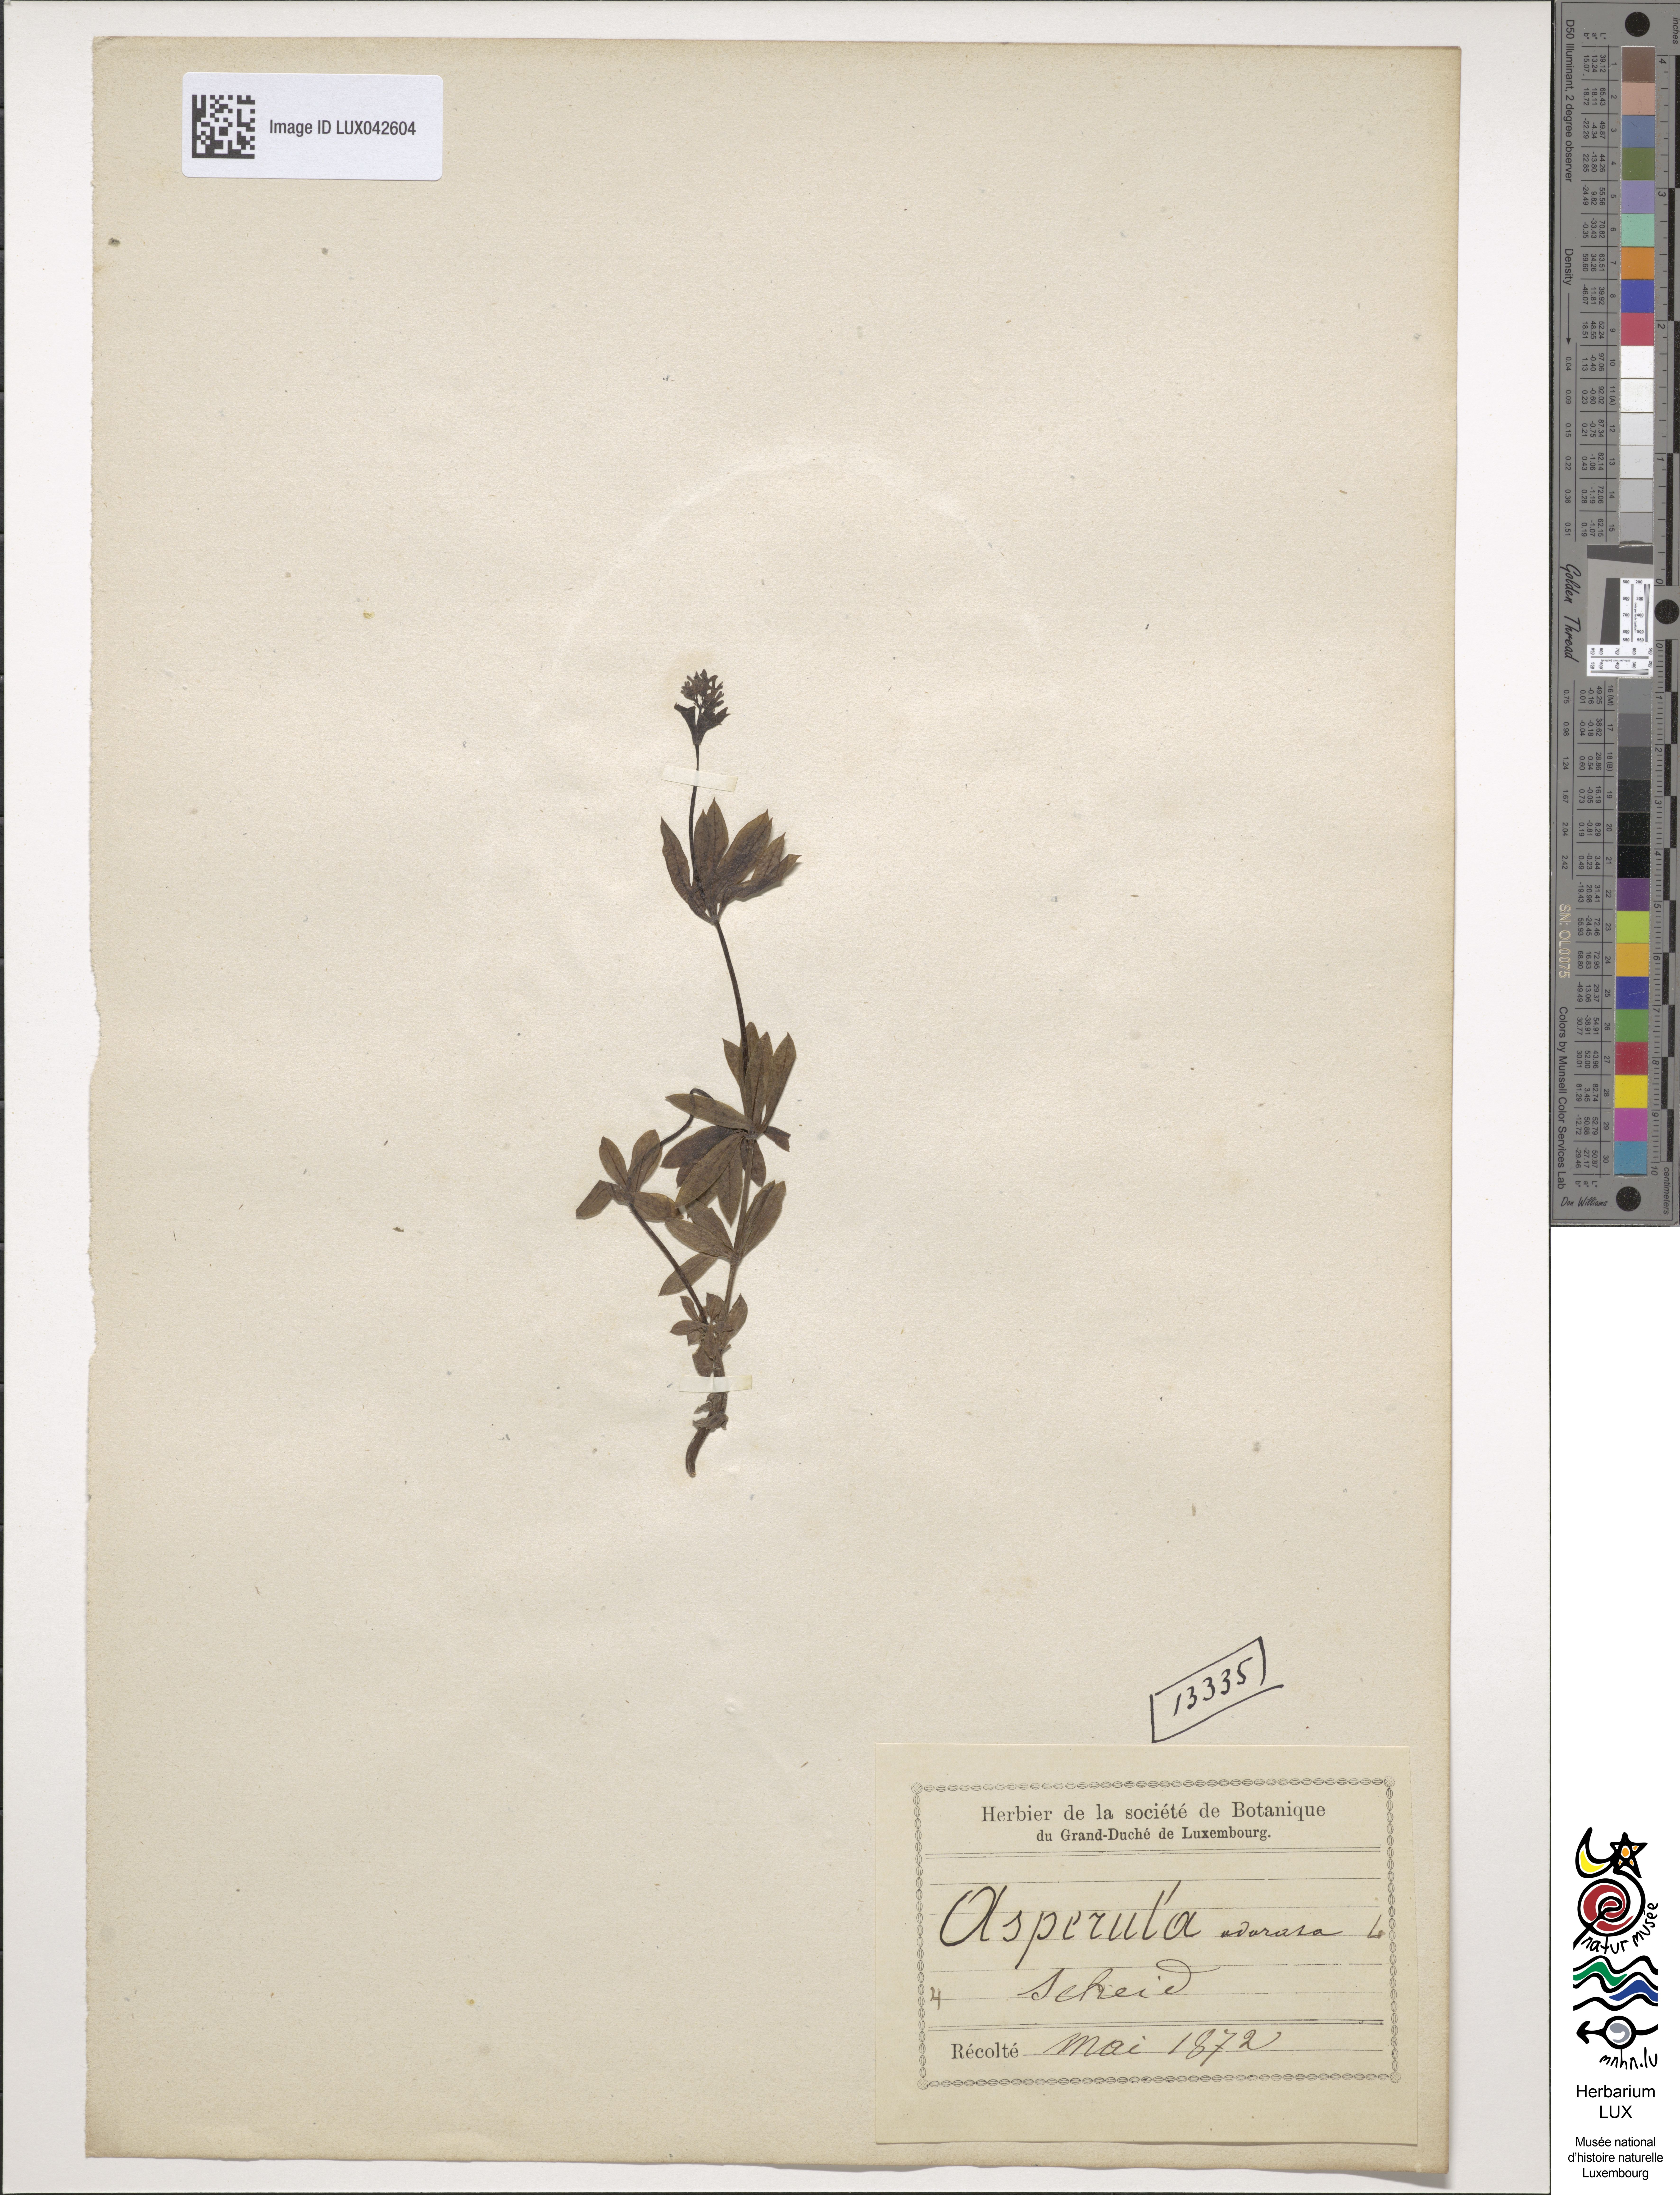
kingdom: Plantae
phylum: Tracheophyta
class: Magnoliopsida
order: Gentianales
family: Rubiaceae
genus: Galium
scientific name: Galium odoratum
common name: Sweet woodruff
